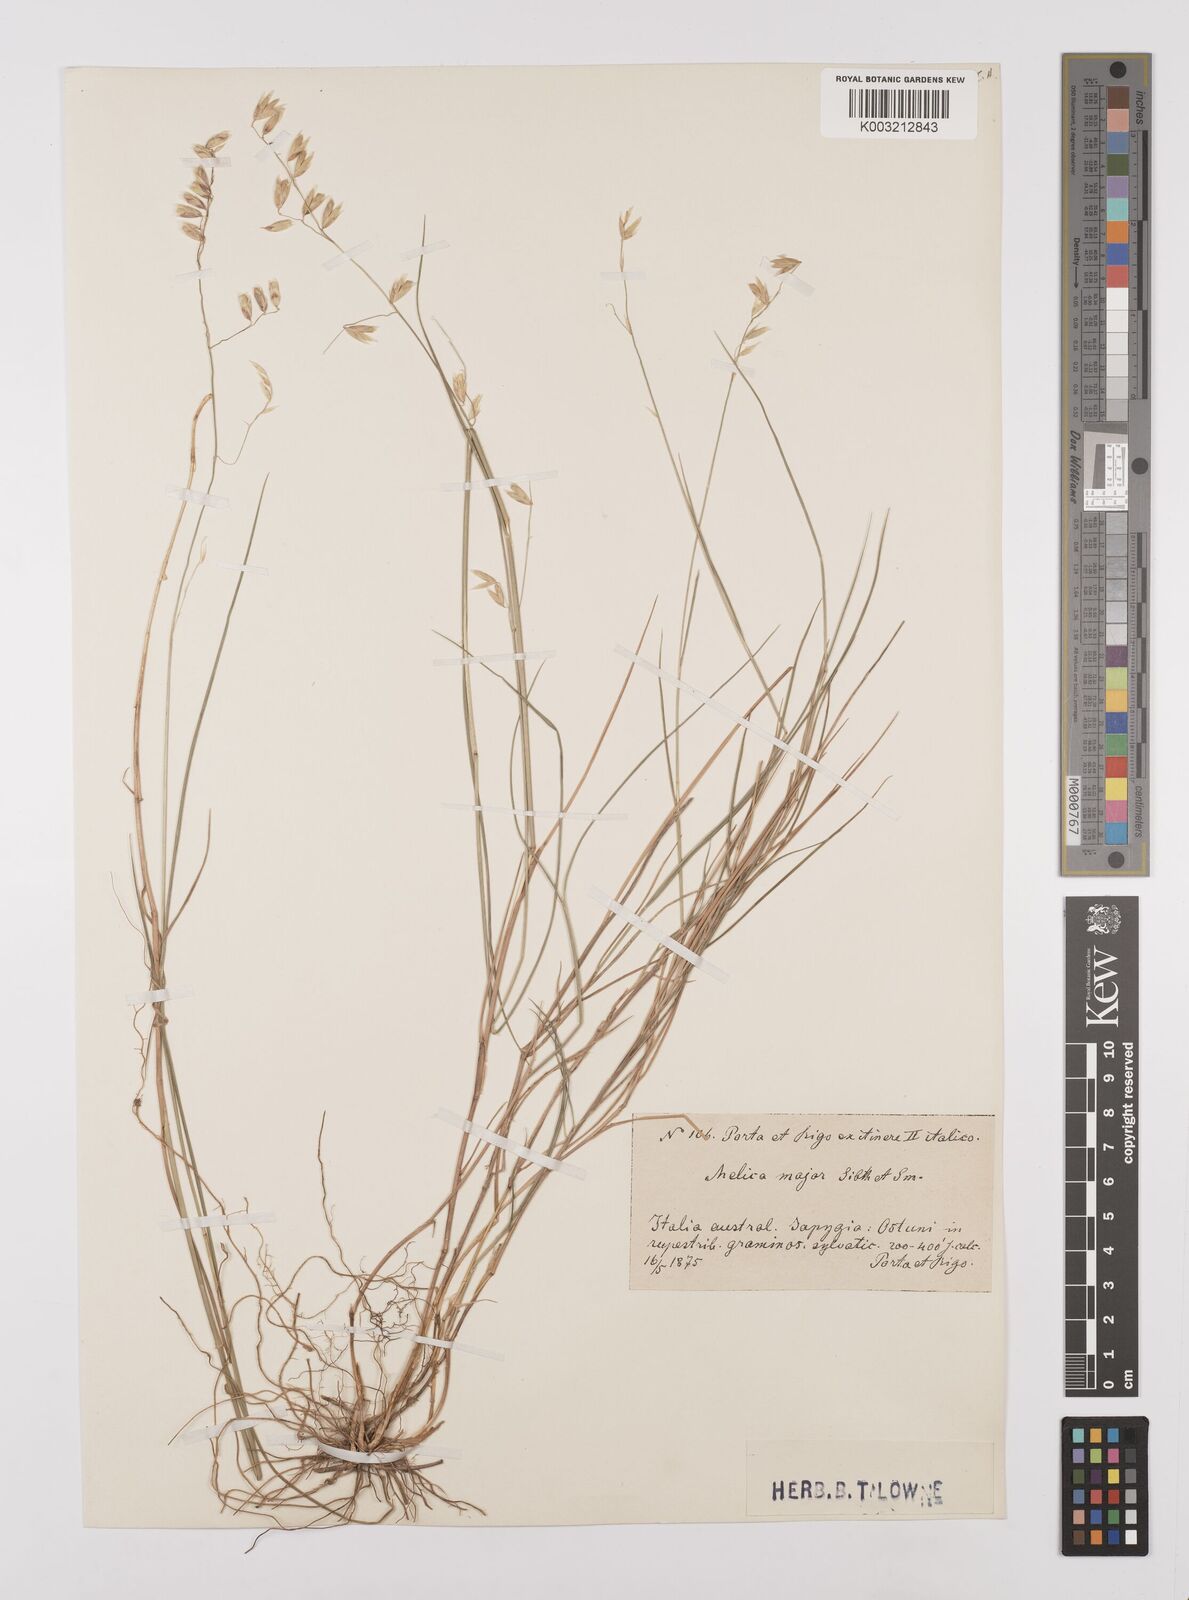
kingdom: Plantae
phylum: Tracheophyta
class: Liliopsida
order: Poales
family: Poaceae
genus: Melica
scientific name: Melica minuta
